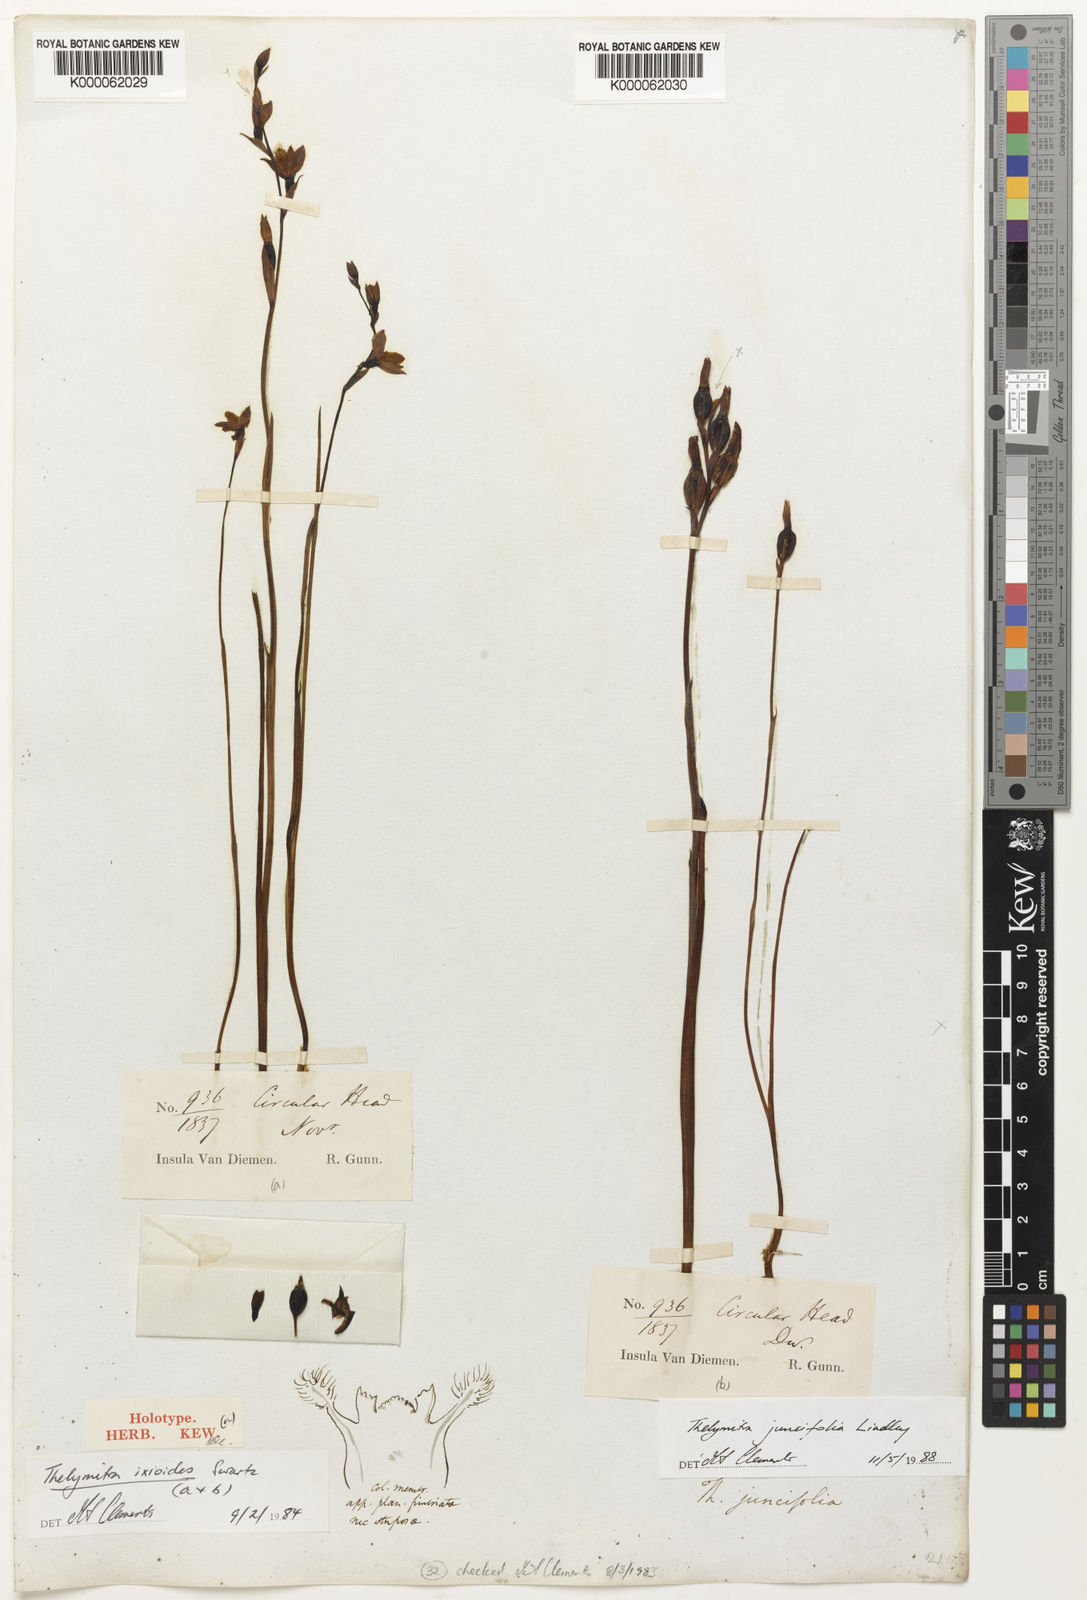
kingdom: Plantae
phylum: Tracheophyta
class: Liliopsida
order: Asparagales
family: Orchidaceae
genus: Thelymitra
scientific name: Thelymitra juncifolia
